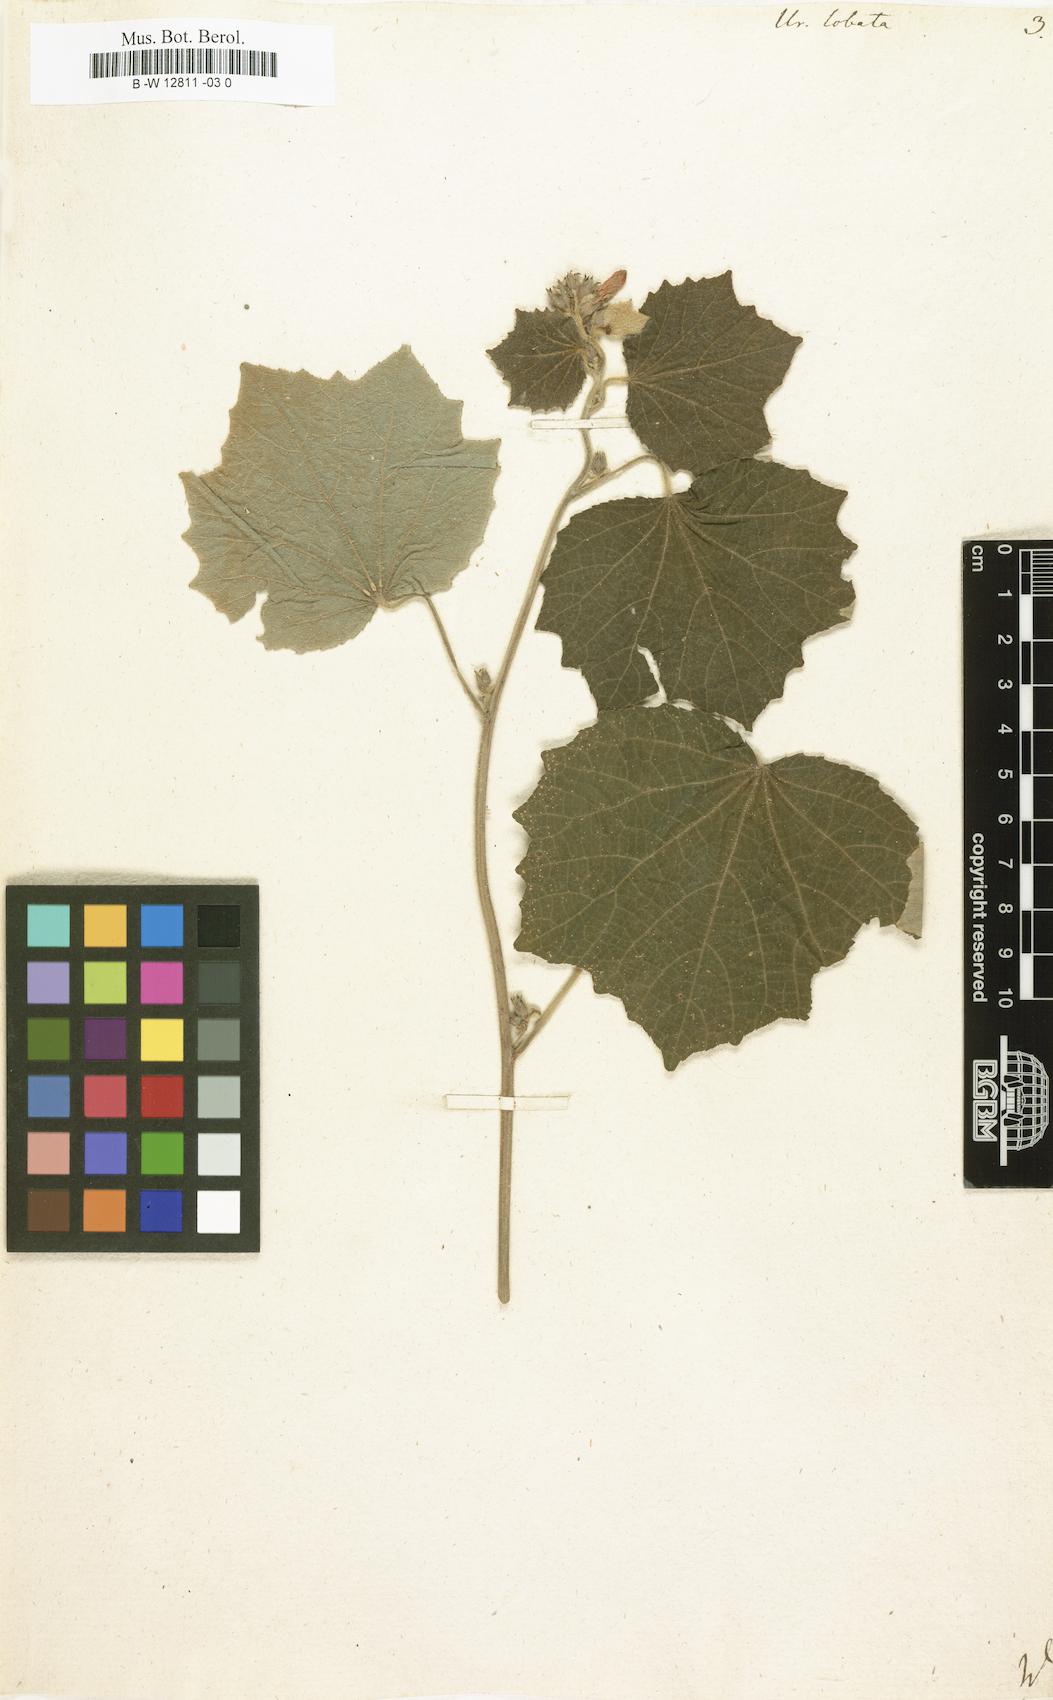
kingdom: Plantae
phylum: Tracheophyta
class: Magnoliopsida
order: Malvales
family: Malvaceae
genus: Urena
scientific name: Urena lobata
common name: Caesarweed
